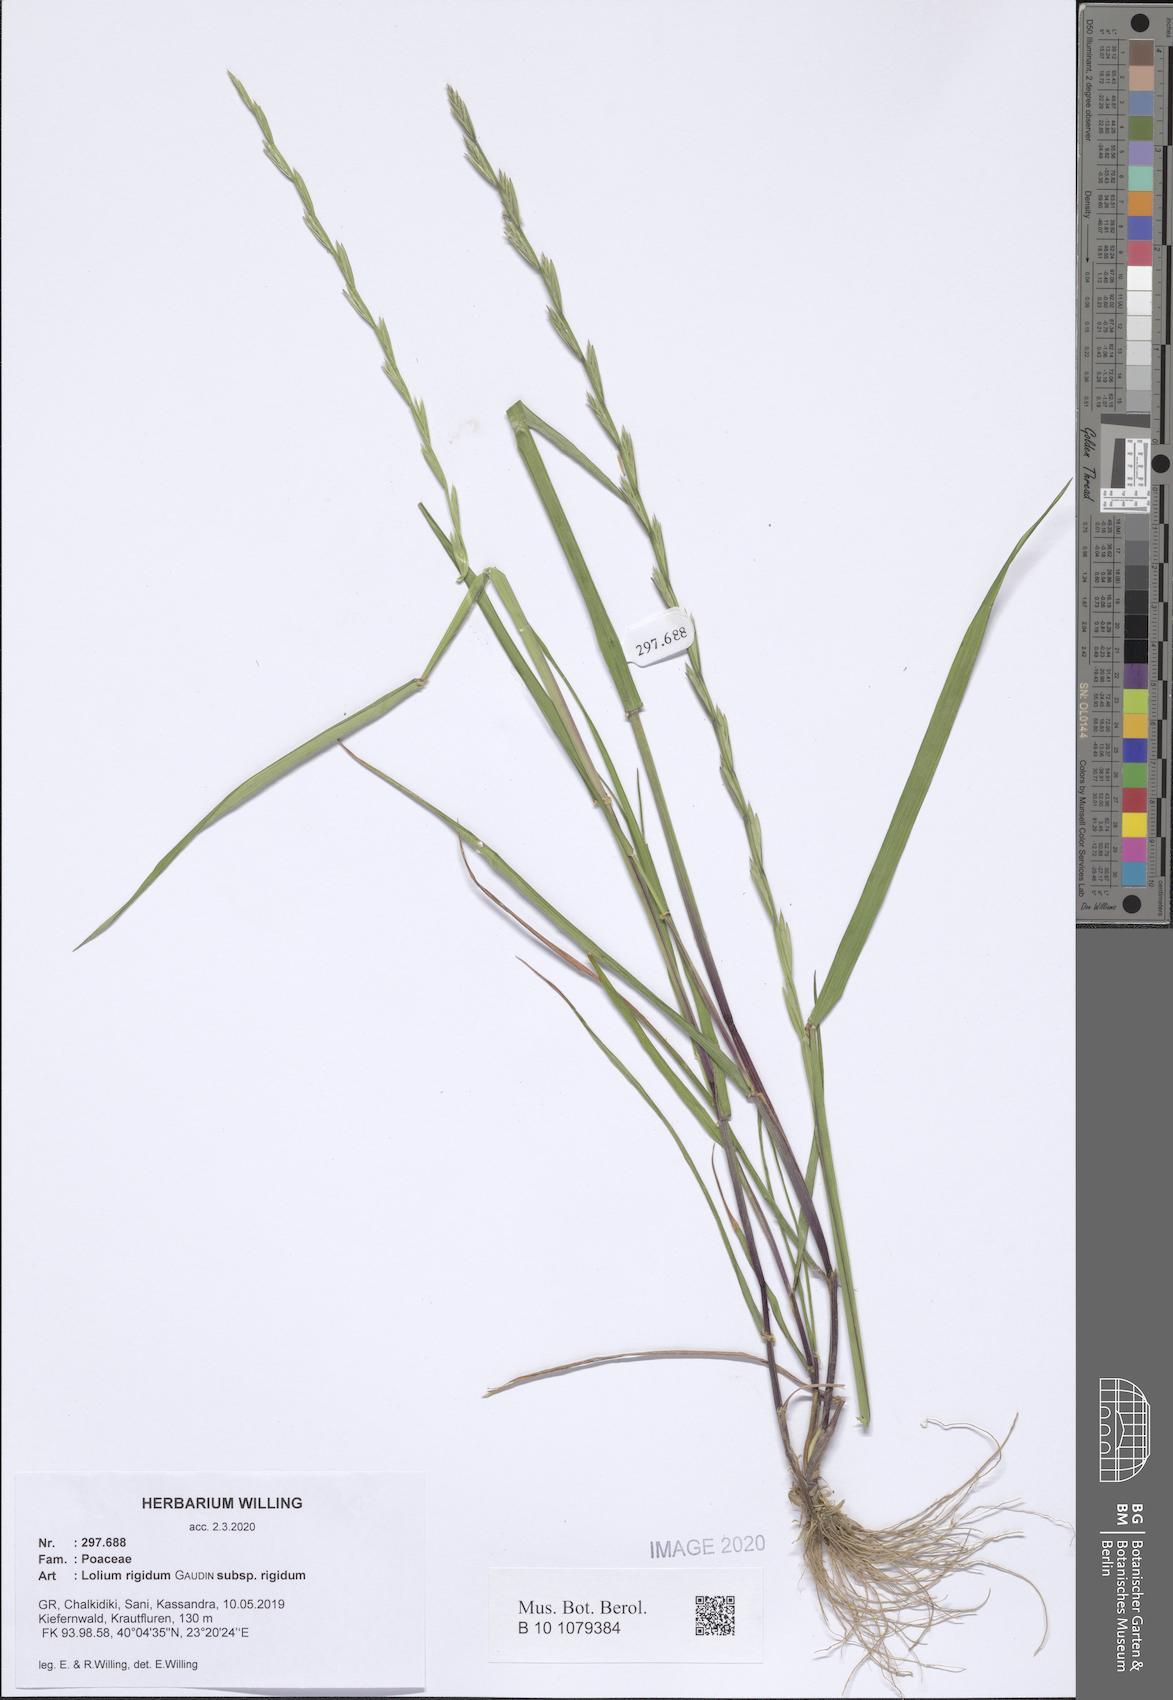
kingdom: Plantae
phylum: Tracheophyta
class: Liliopsida
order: Poales
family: Poaceae
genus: Lolium
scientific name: Lolium rigidum
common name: Wimmera ryegrass
